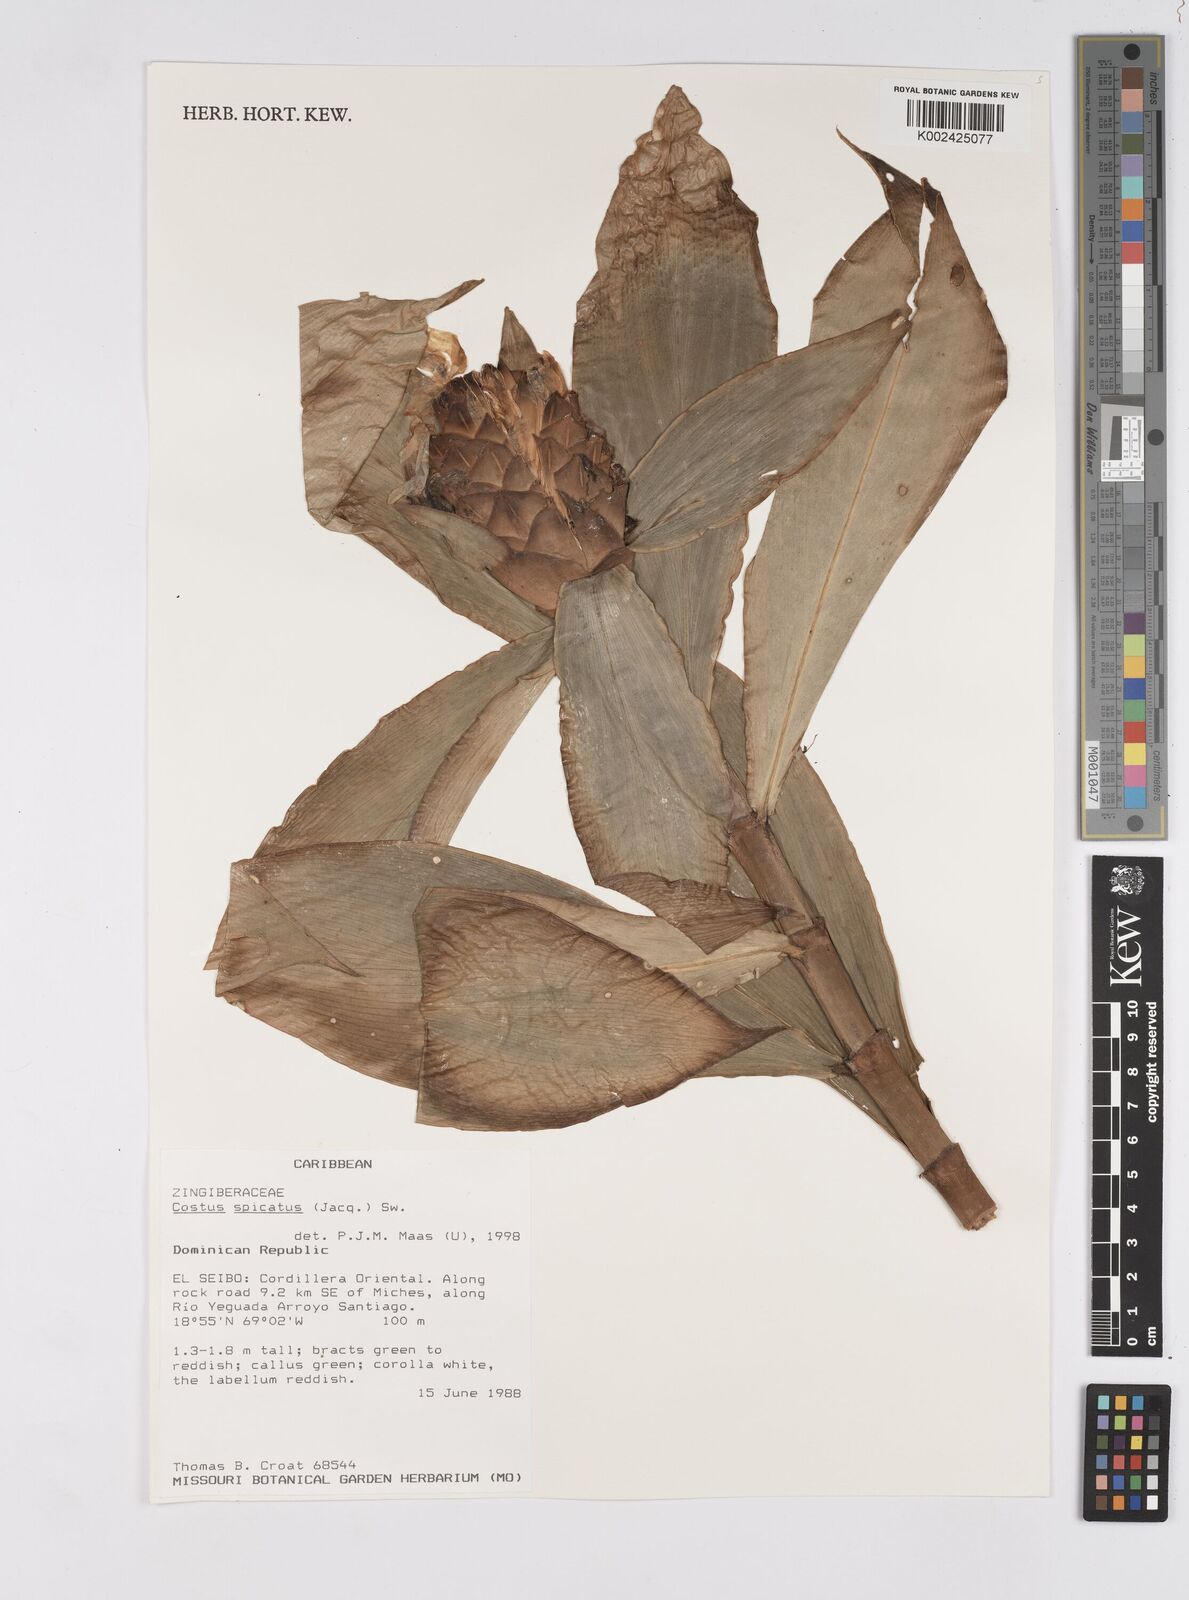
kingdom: Plantae
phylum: Tracheophyta
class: Liliopsida
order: Zingiberales
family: Costaceae
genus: Costus
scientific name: Costus spicatus
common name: Spiked spiral-flag
